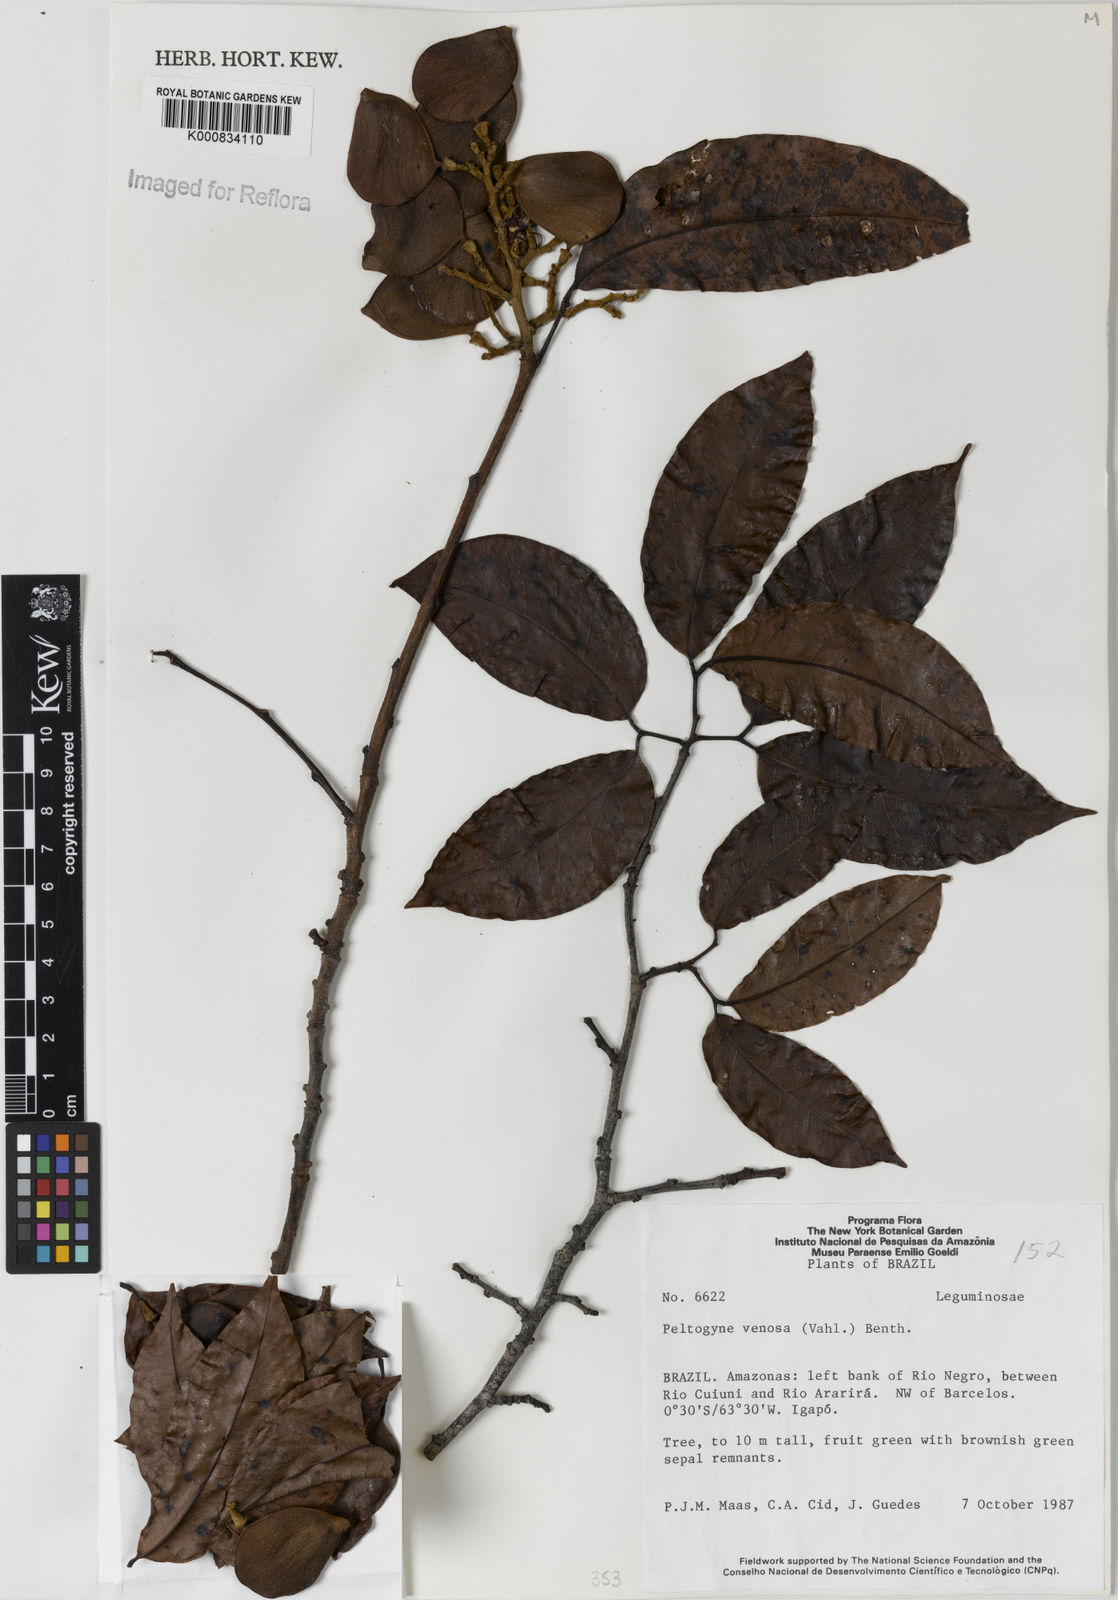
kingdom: Plantae
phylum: Tracheophyta
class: Magnoliopsida
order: Fabales
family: Fabaceae
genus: Peltogyne
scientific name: Peltogyne venosa
